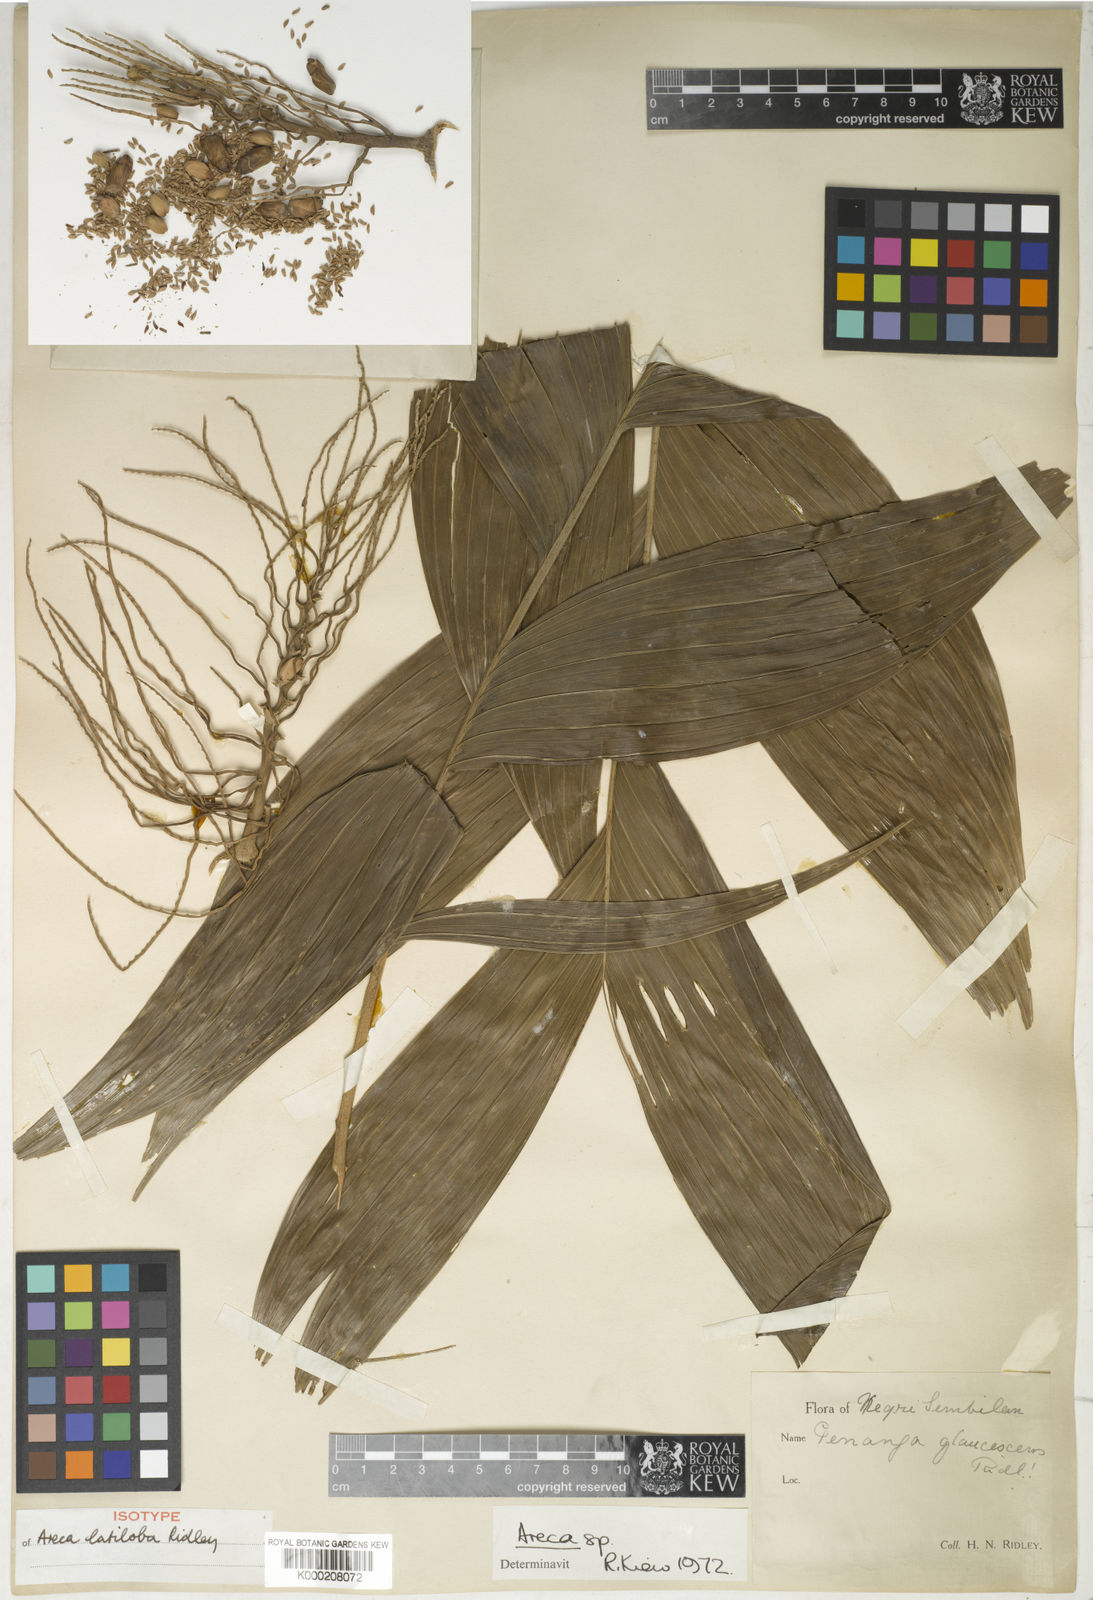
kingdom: Plantae
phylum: Tracheophyta
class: Liliopsida
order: Arecales
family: Arecaceae
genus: Areca
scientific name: Areca montana
